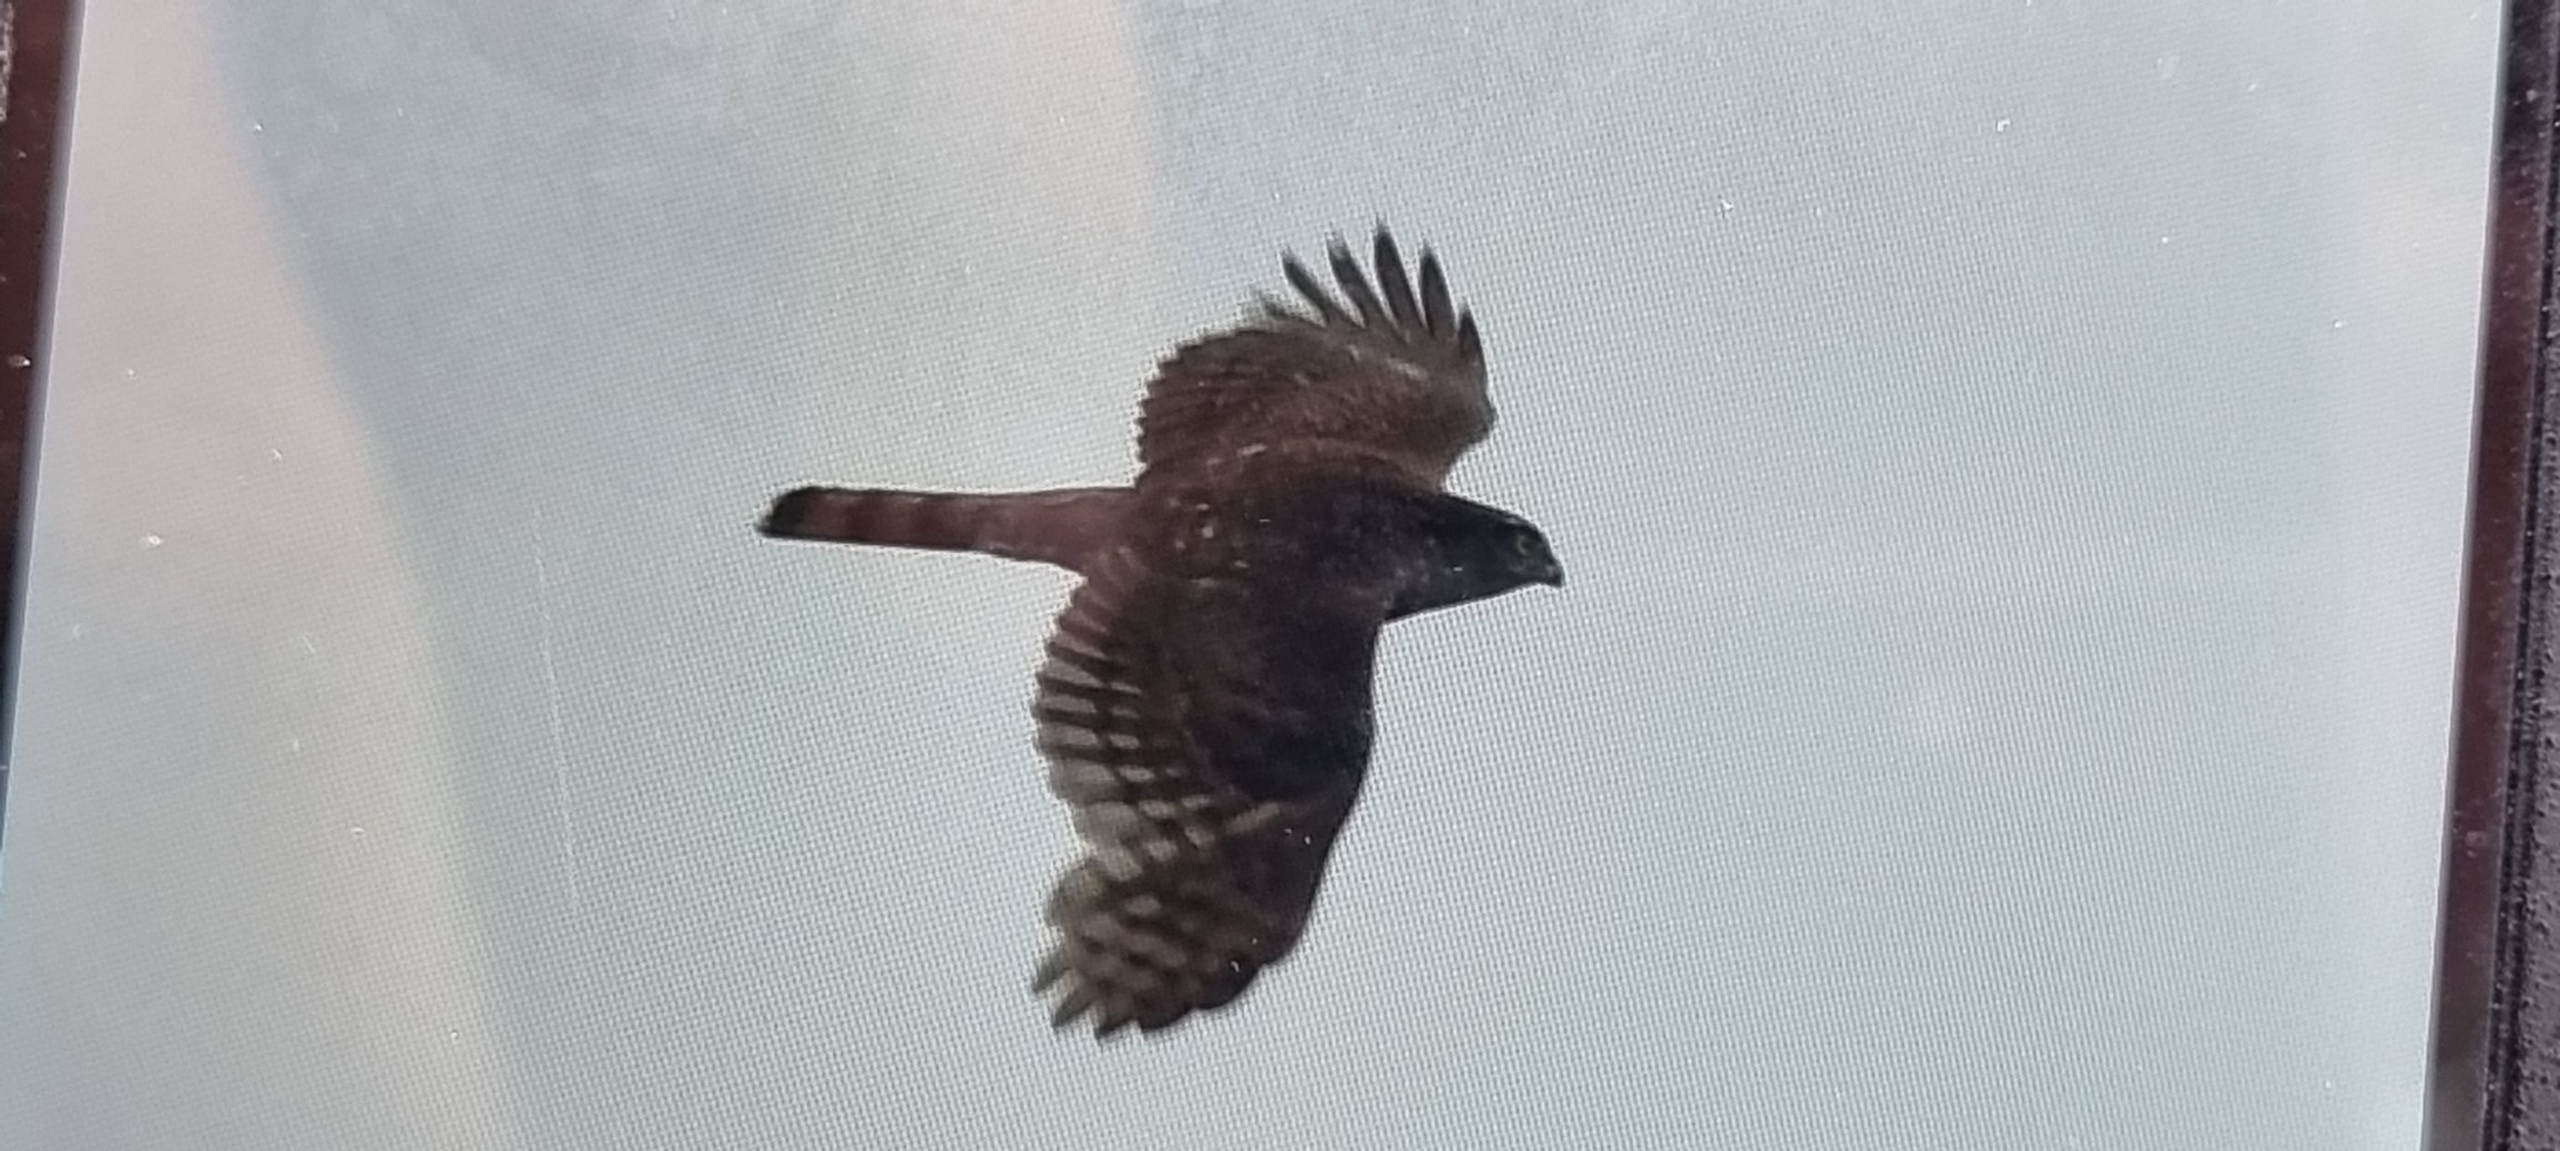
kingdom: Animalia
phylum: Chordata
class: Aves
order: Accipitriformes
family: Accipitridae
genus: Accipiter
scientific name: Accipiter nisus
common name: Spurvehøg
